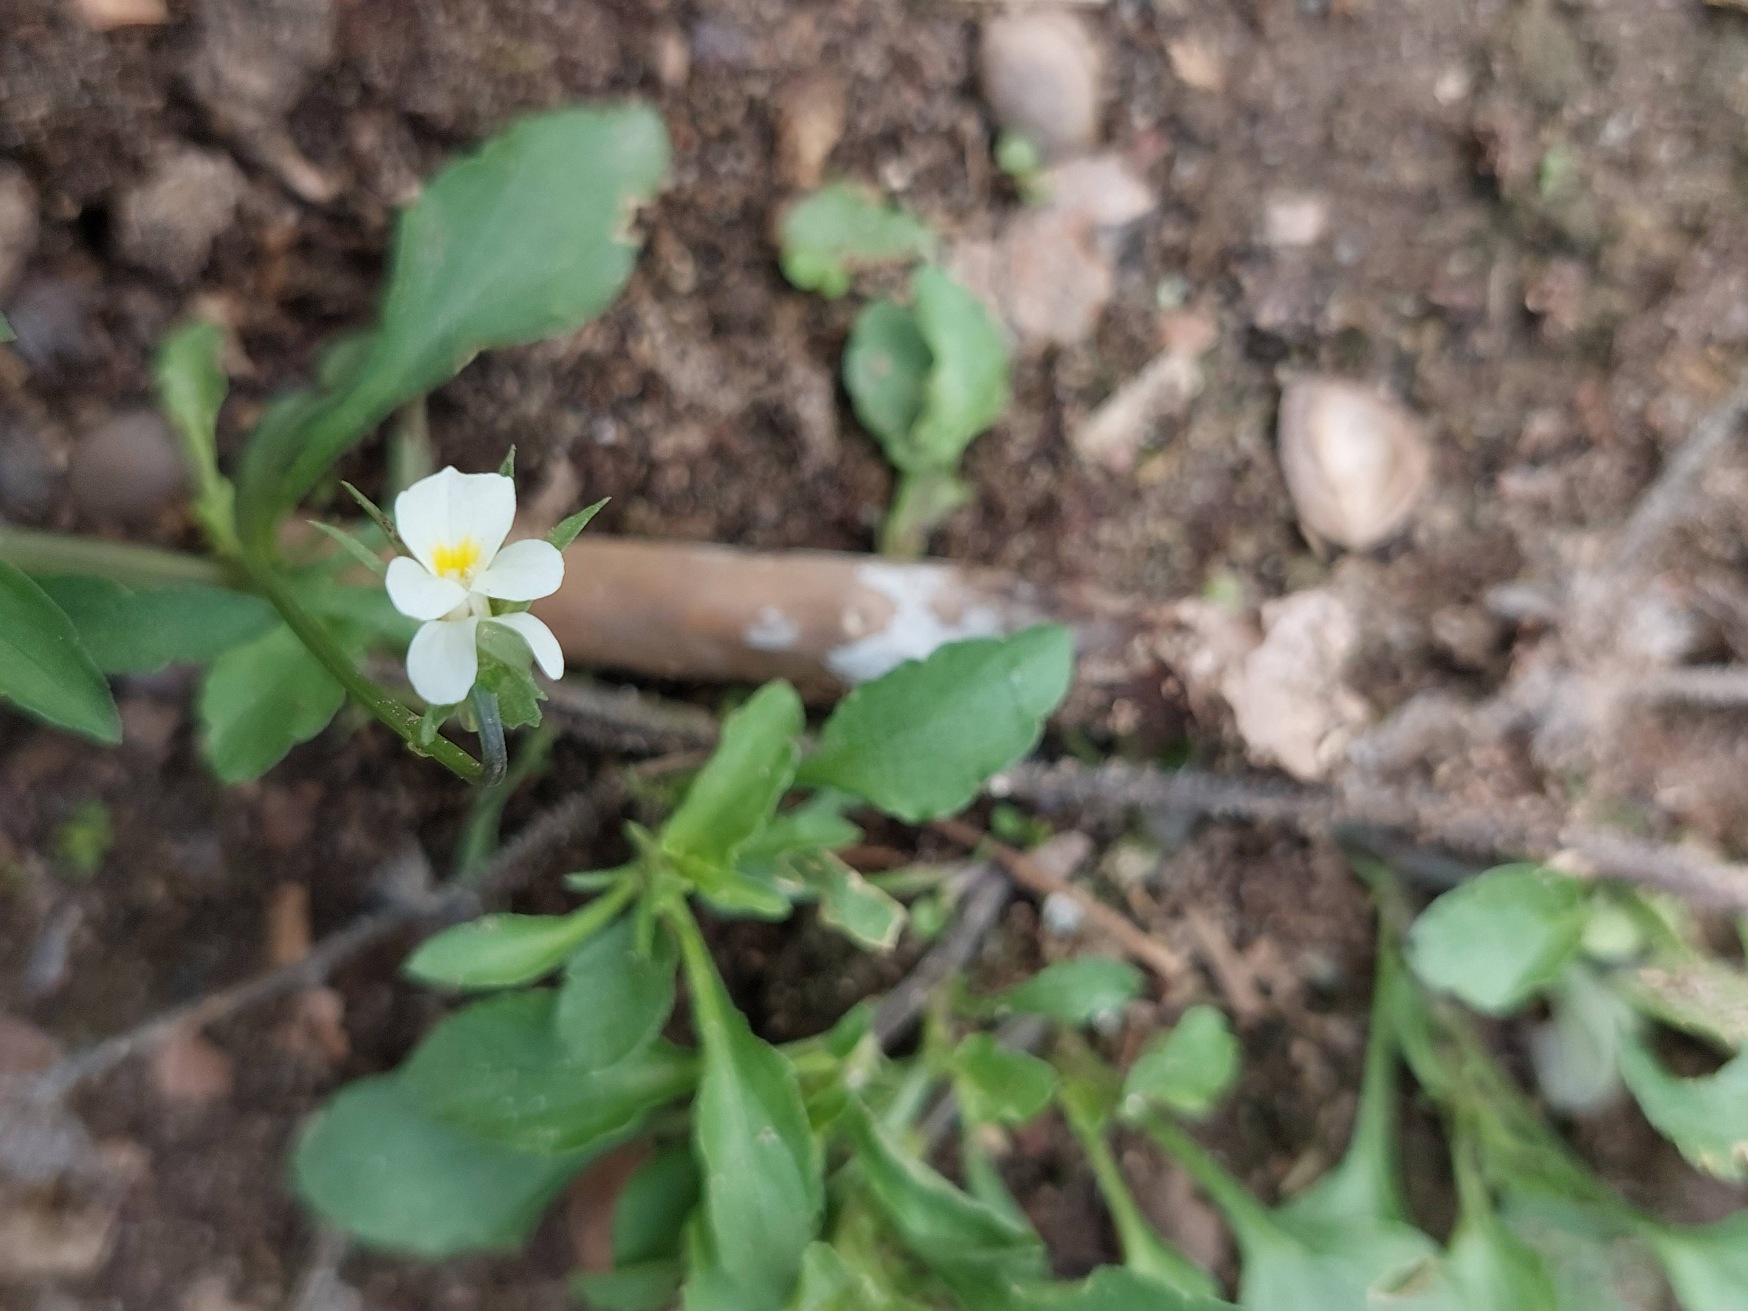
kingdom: Plantae
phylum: Tracheophyta
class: Magnoliopsida
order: Malpighiales
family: Violaceae
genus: Viola
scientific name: Viola arvensis
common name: Ager-stedmoderblomst
